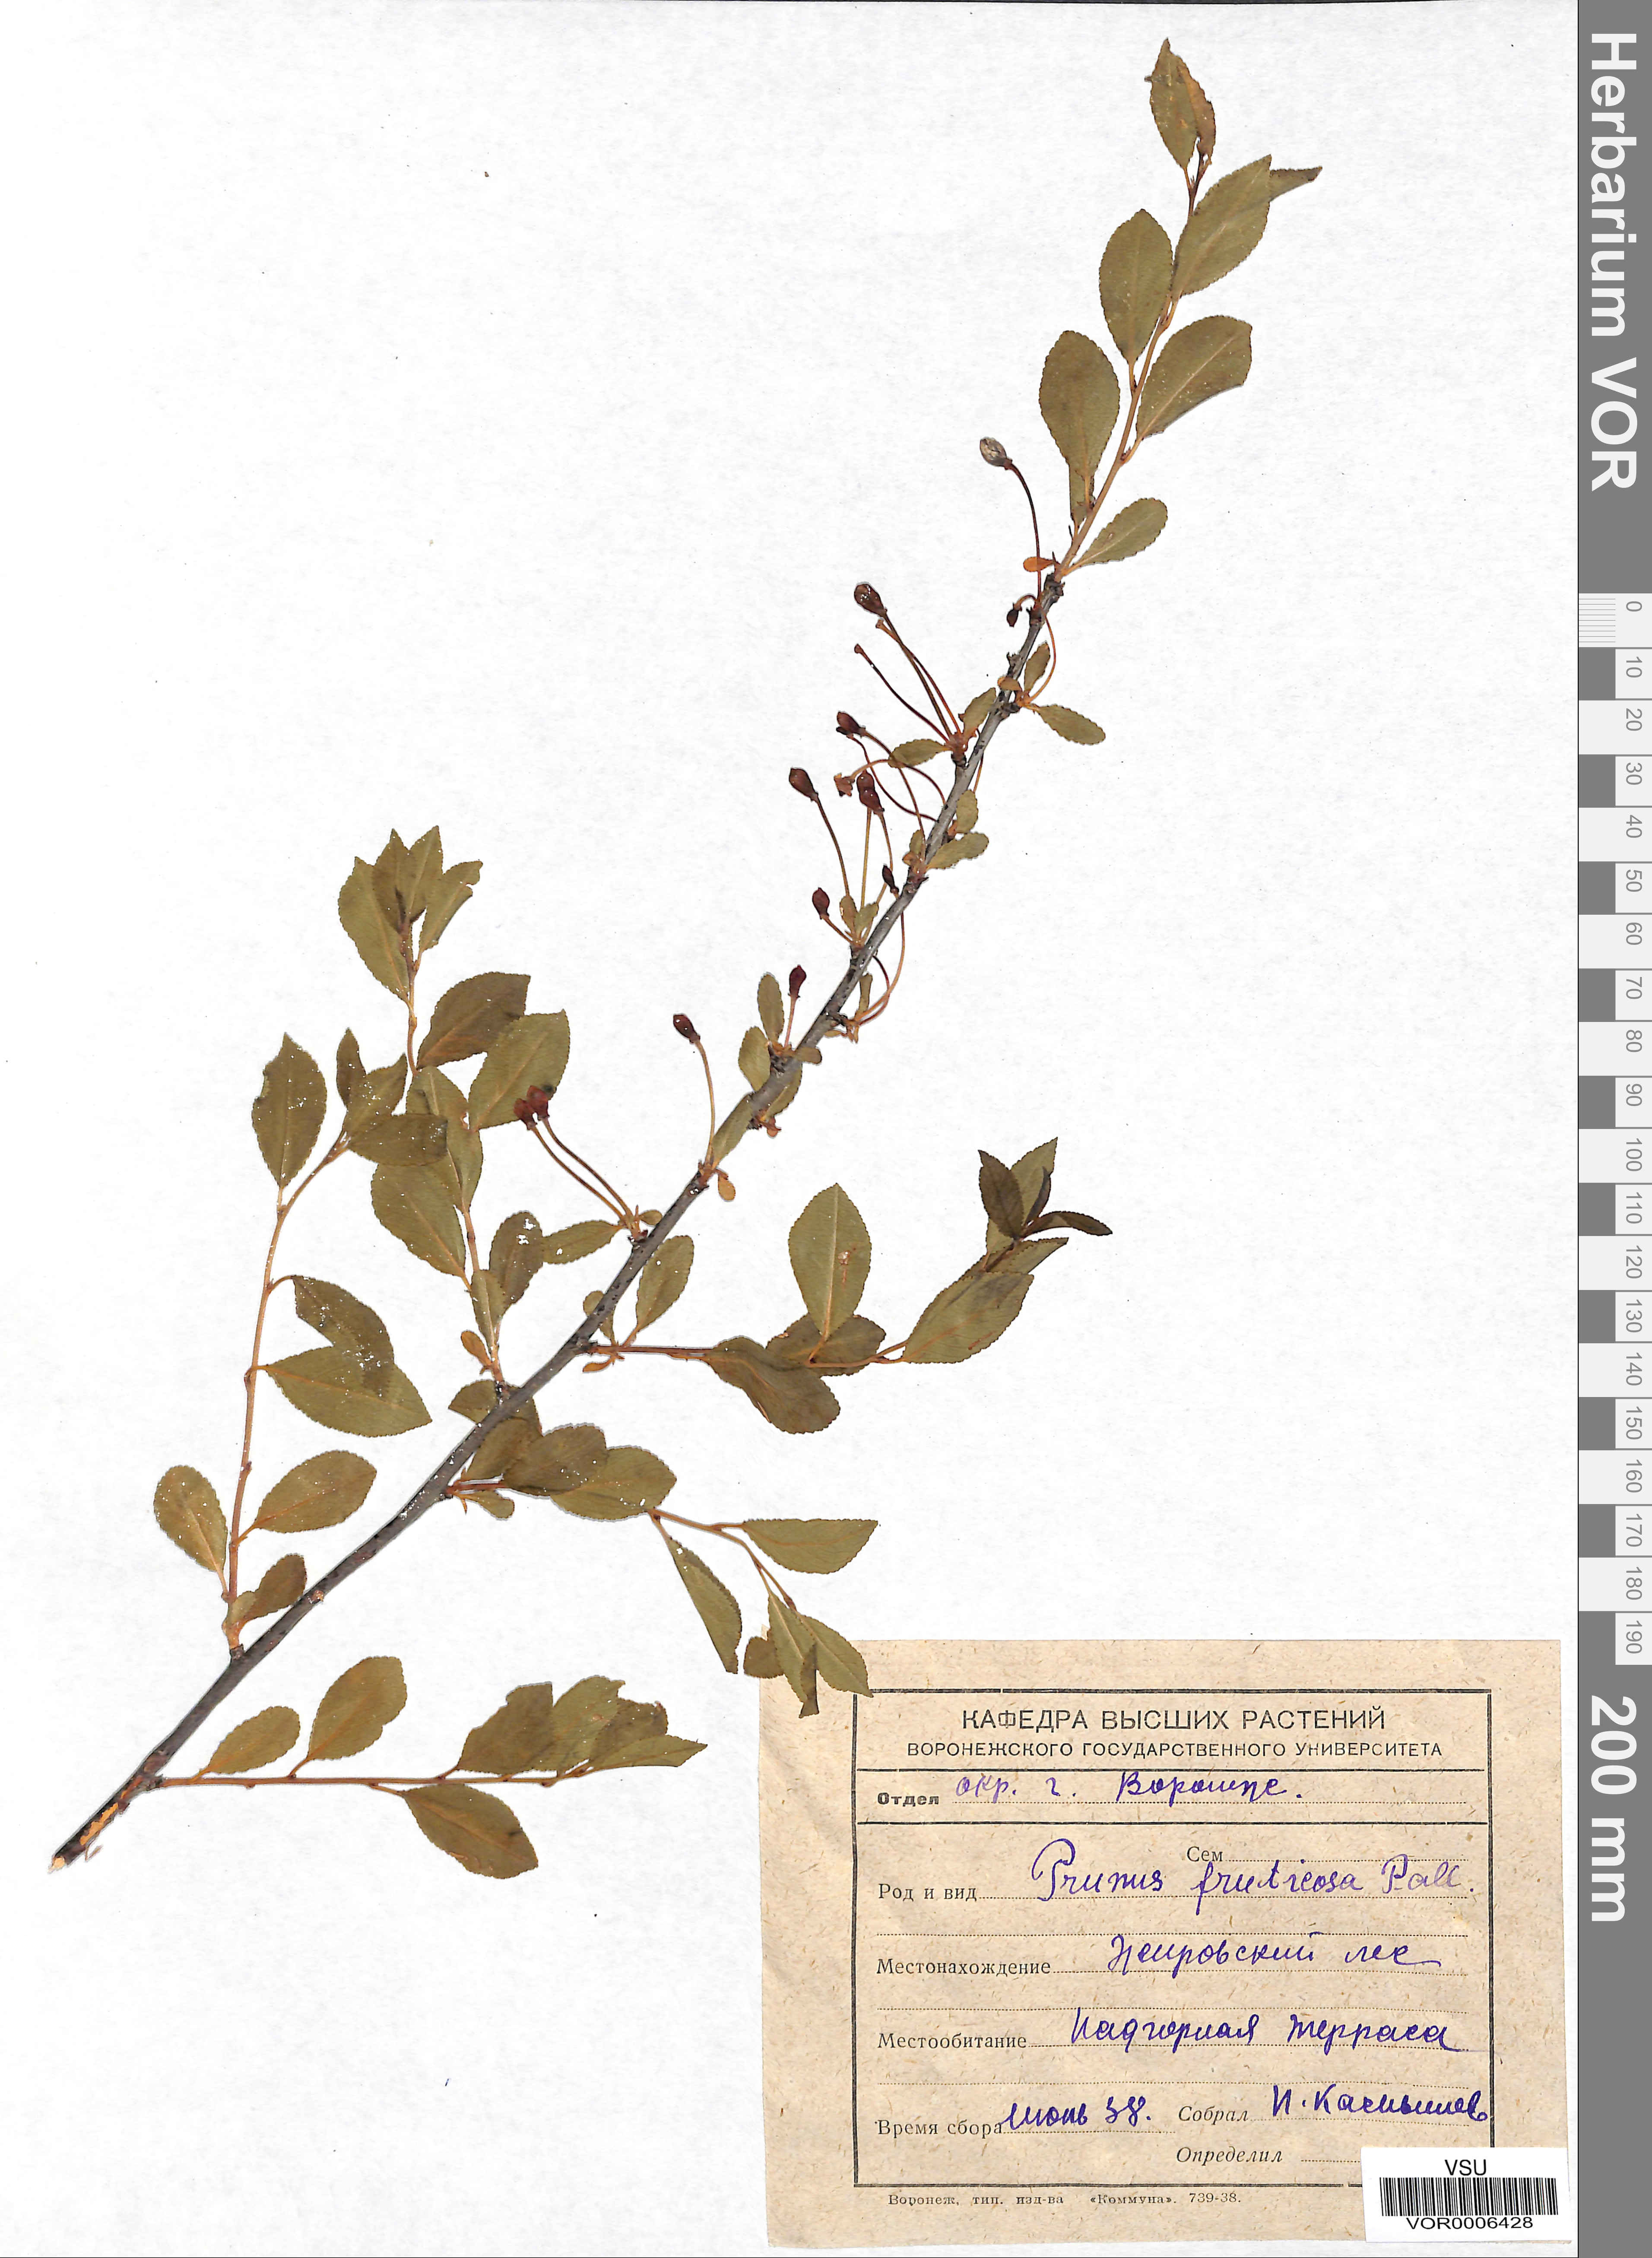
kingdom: Plantae
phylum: Tracheophyta
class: Magnoliopsida
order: Rosales
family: Rosaceae
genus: Prunus
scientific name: Prunus fruticosa
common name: European dwarf cherry
